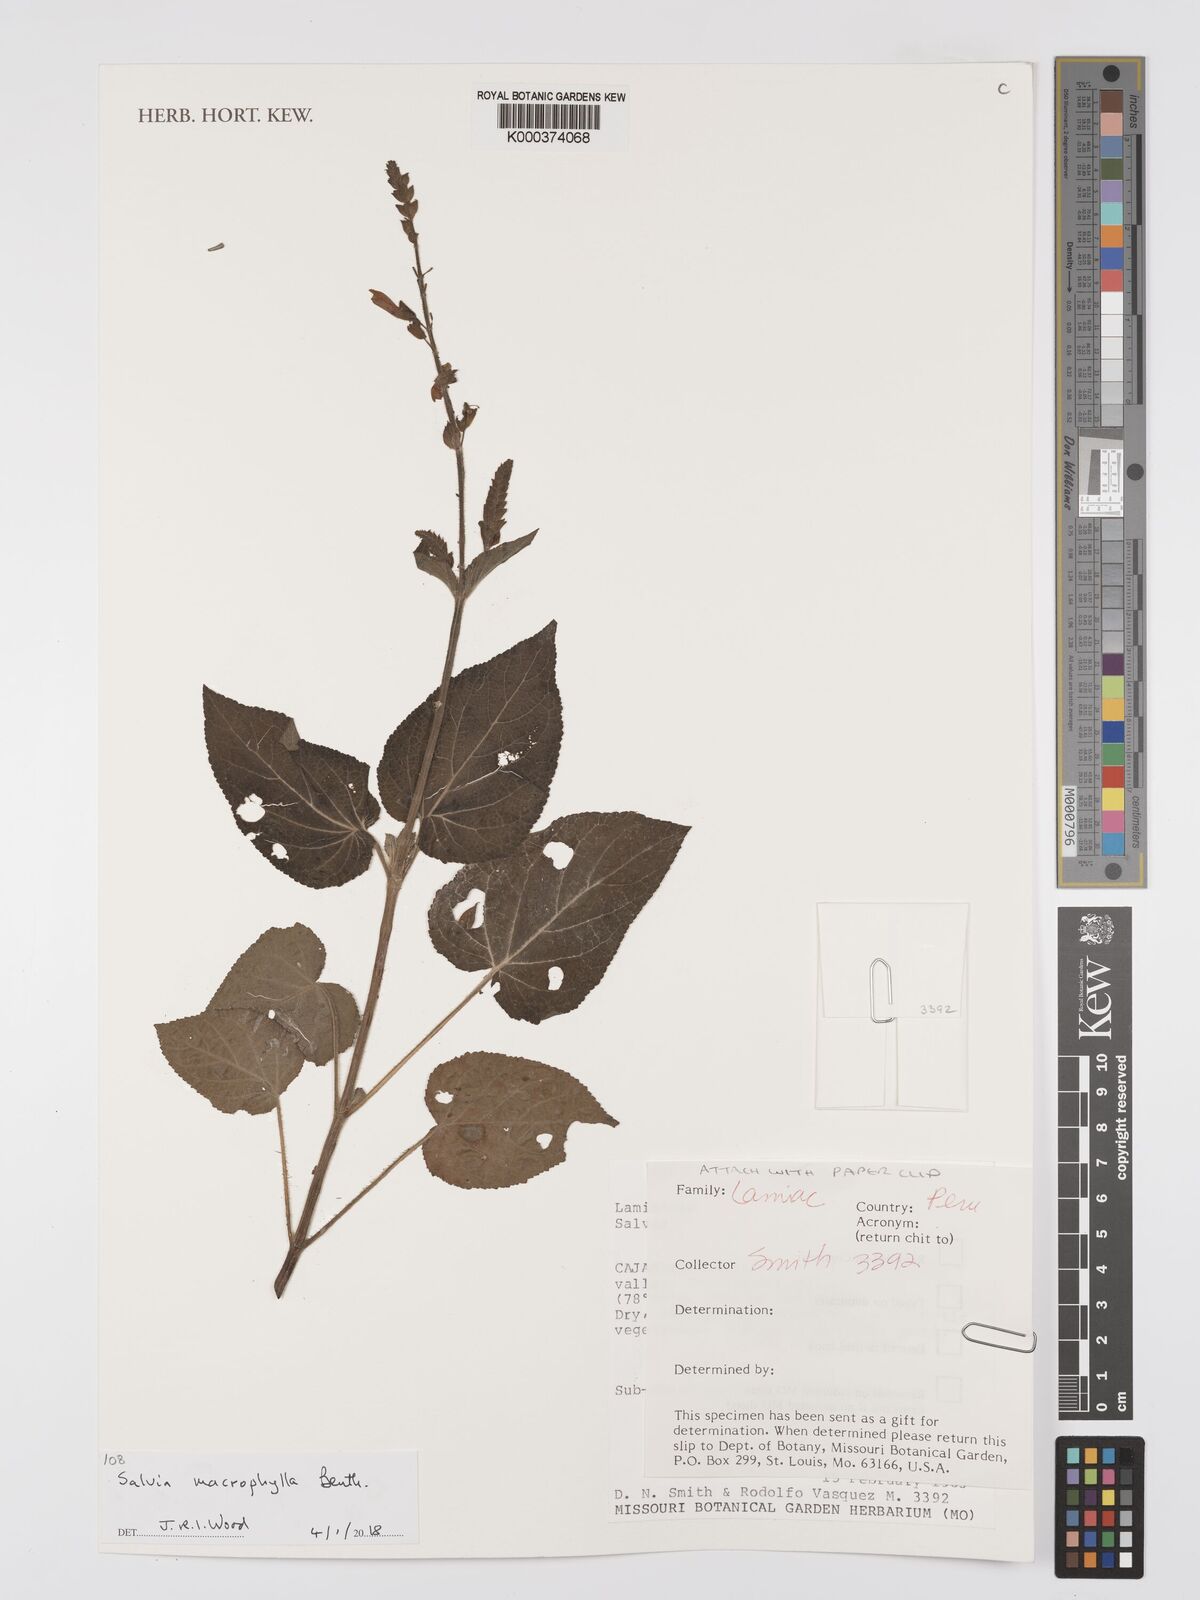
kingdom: Plantae
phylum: Tracheophyta
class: Magnoliopsida
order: Lamiales
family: Lamiaceae
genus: Salvia
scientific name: Salvia macrophylla
